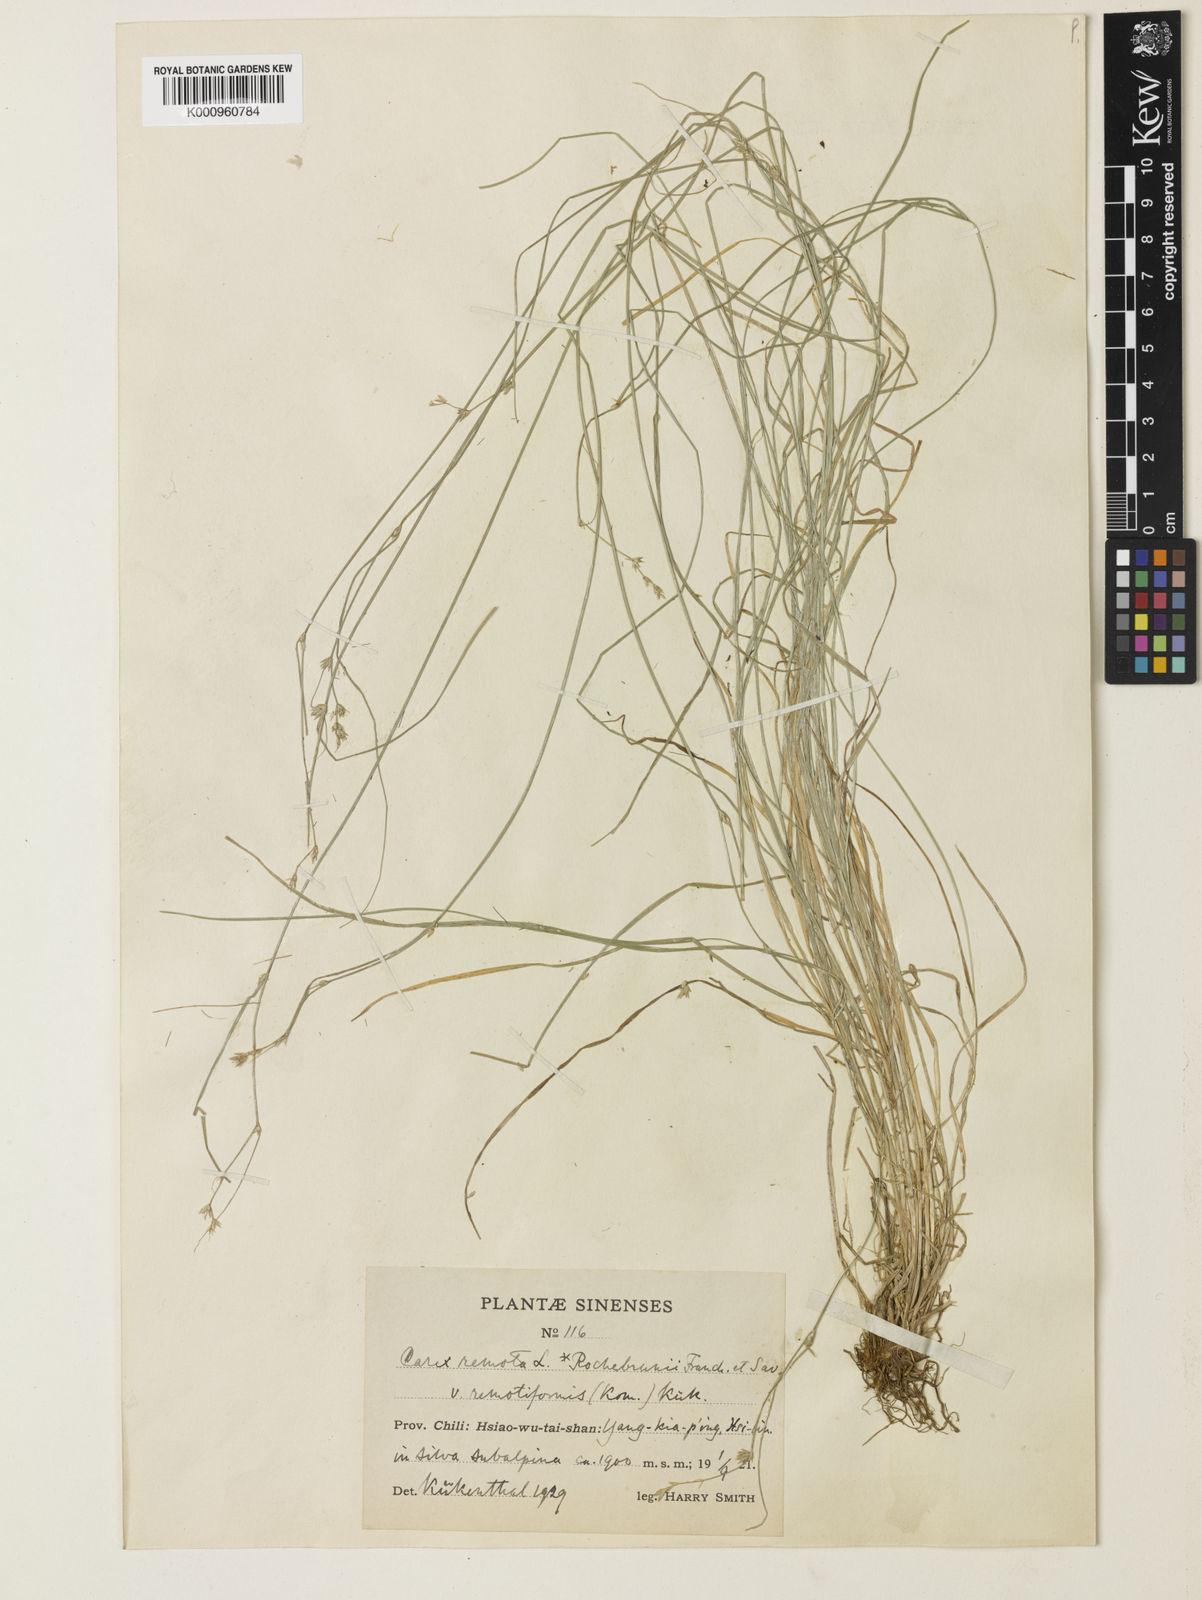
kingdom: Plantae
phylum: Tracheophyta
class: Liliopsida
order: Poales
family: Cyperaceae
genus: Carex
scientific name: Carex remota
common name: Remote sedge
